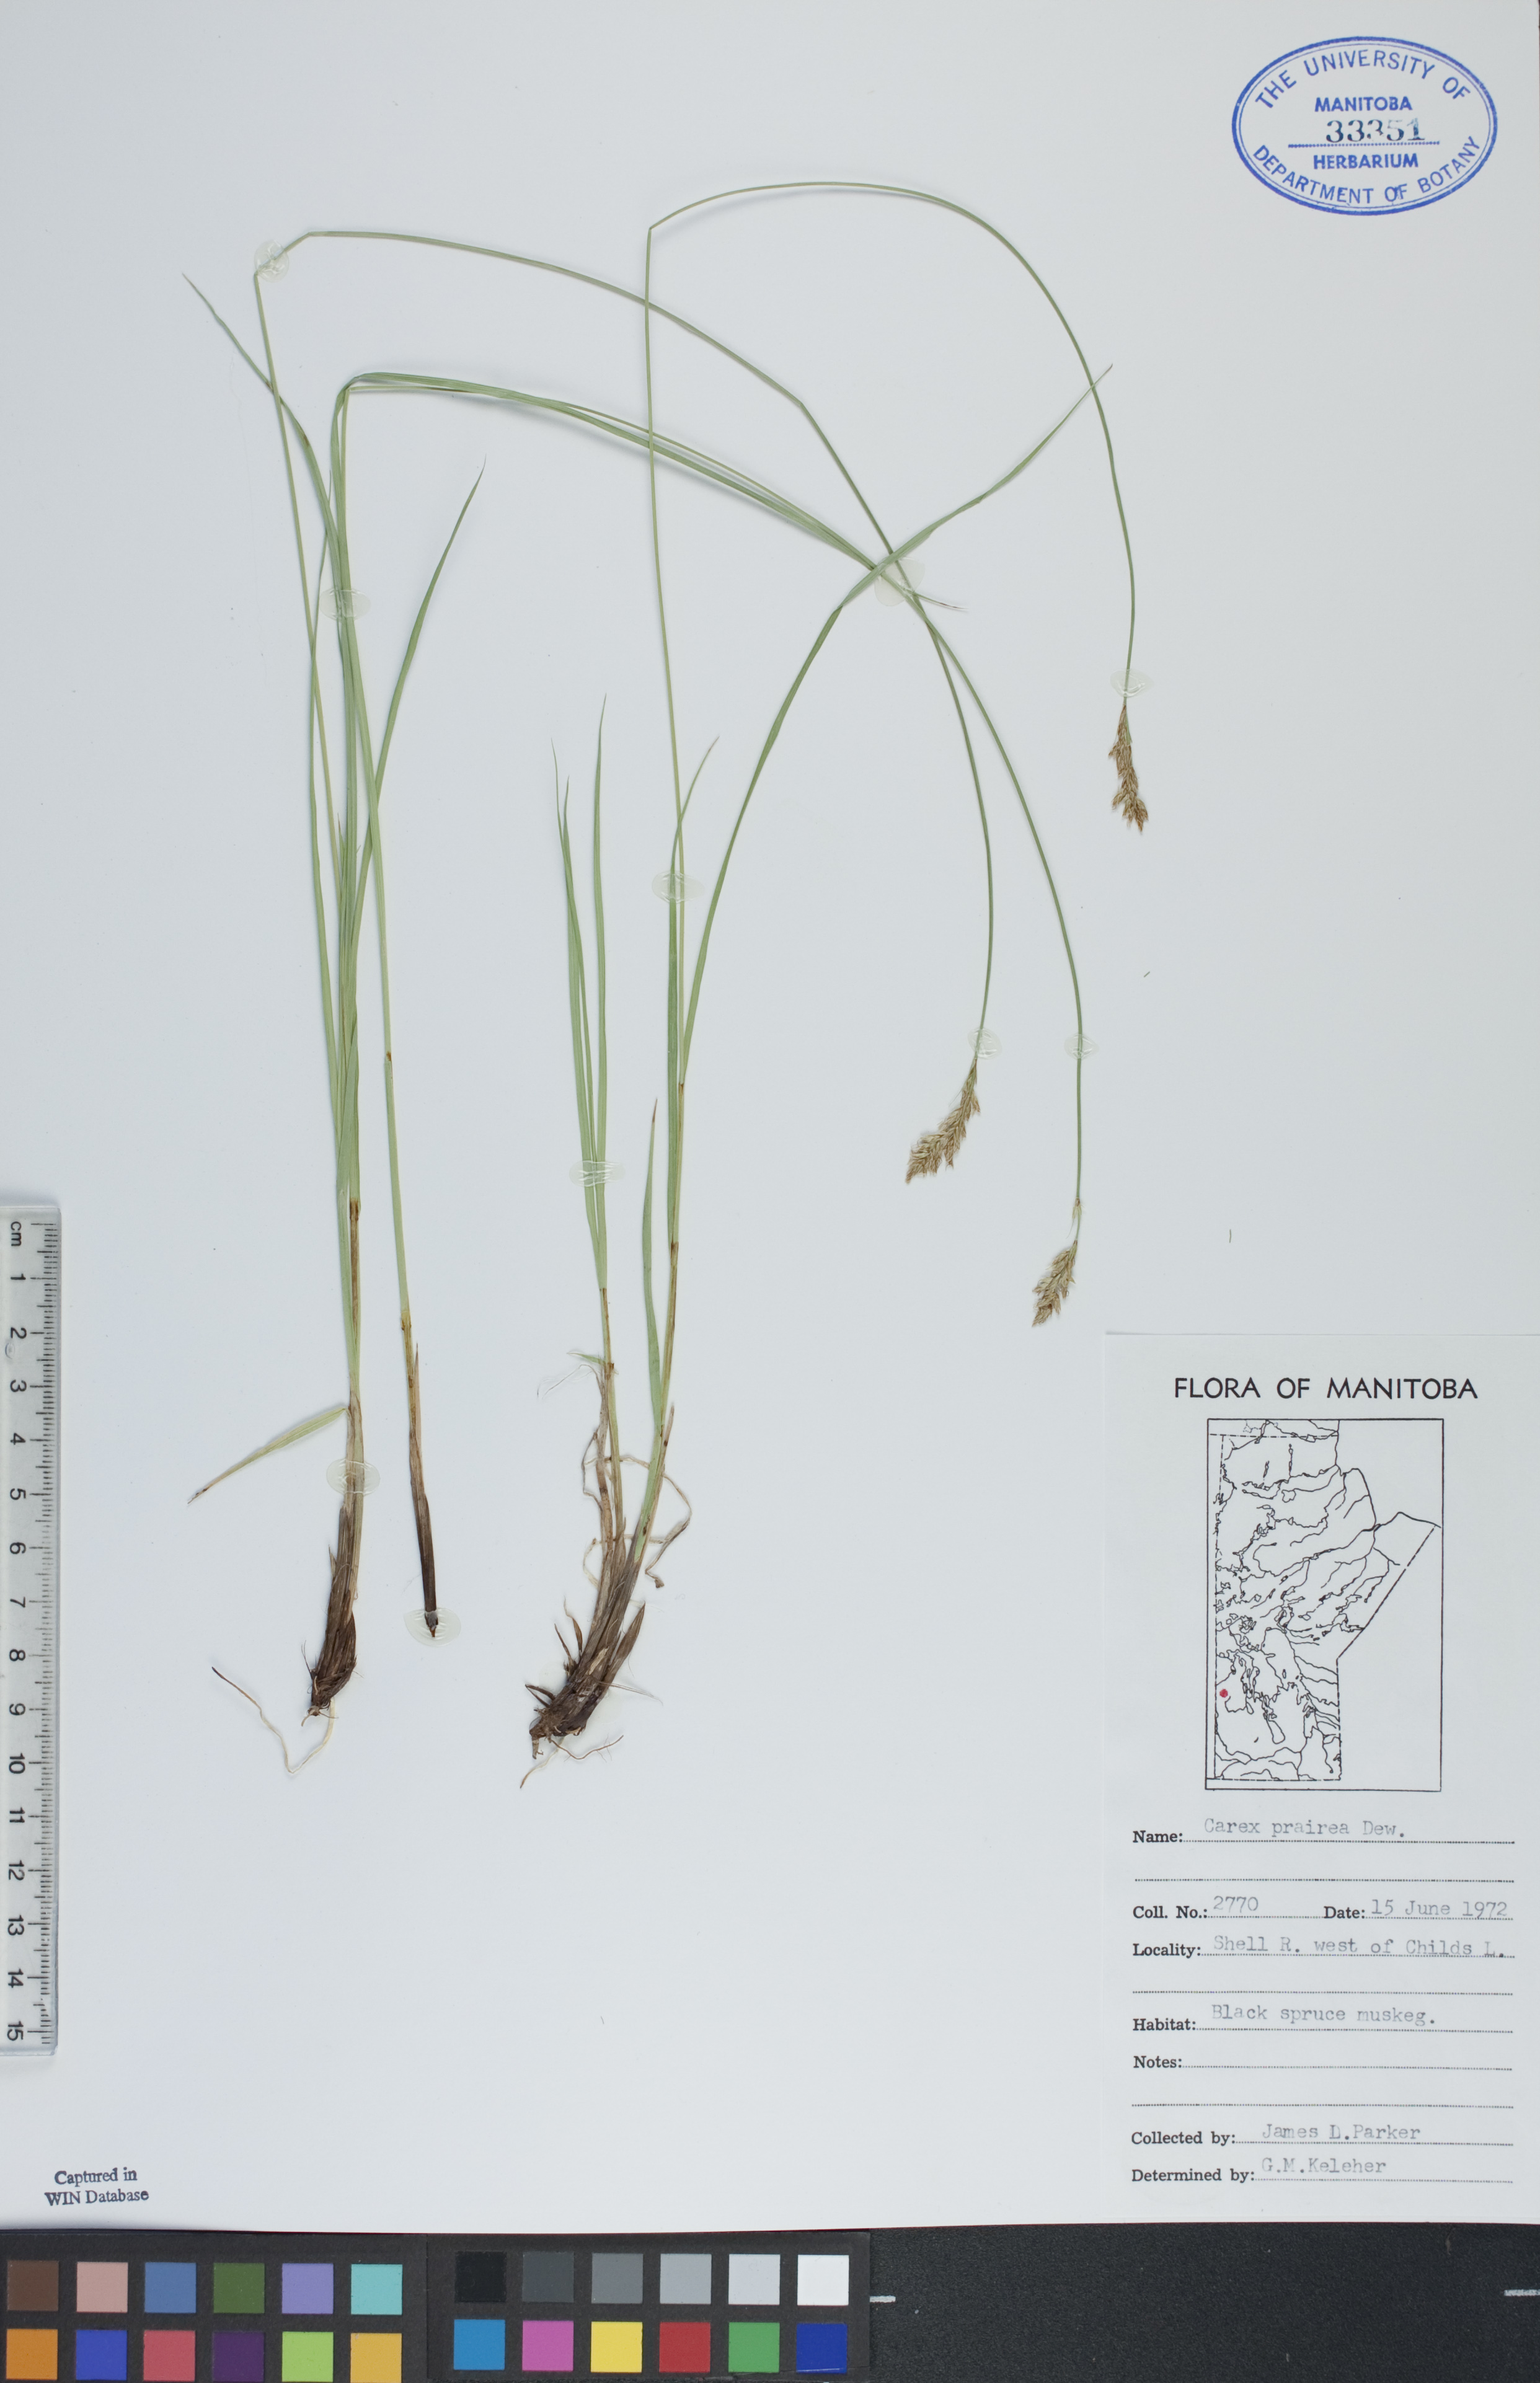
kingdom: Plantae
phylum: Tracheophyta
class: Liliopsida
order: Poales
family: Cyperaceae
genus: Carex
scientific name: Carex prairea
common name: Prairie sedge
